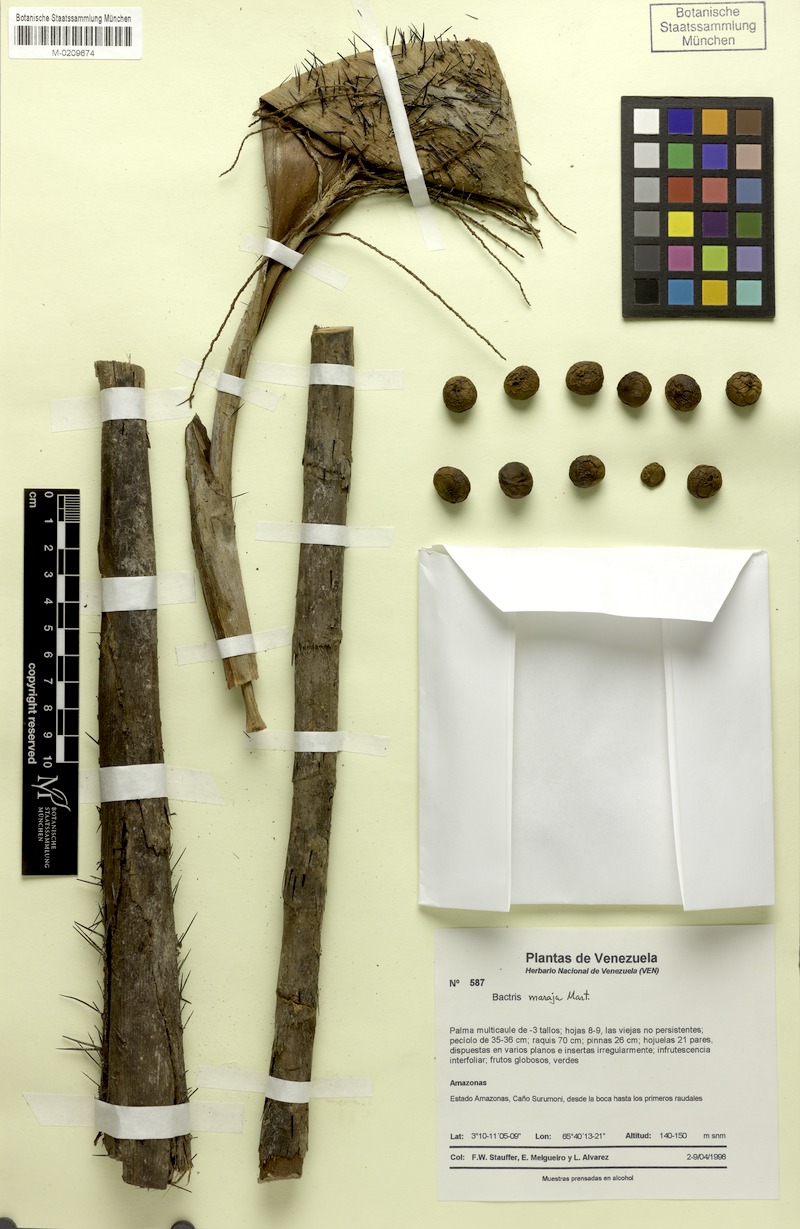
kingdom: Plantae
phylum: Tracheophyta
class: Liliopsida
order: Arecales
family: Arecaceae
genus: Bactris
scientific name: Bactris maraja
